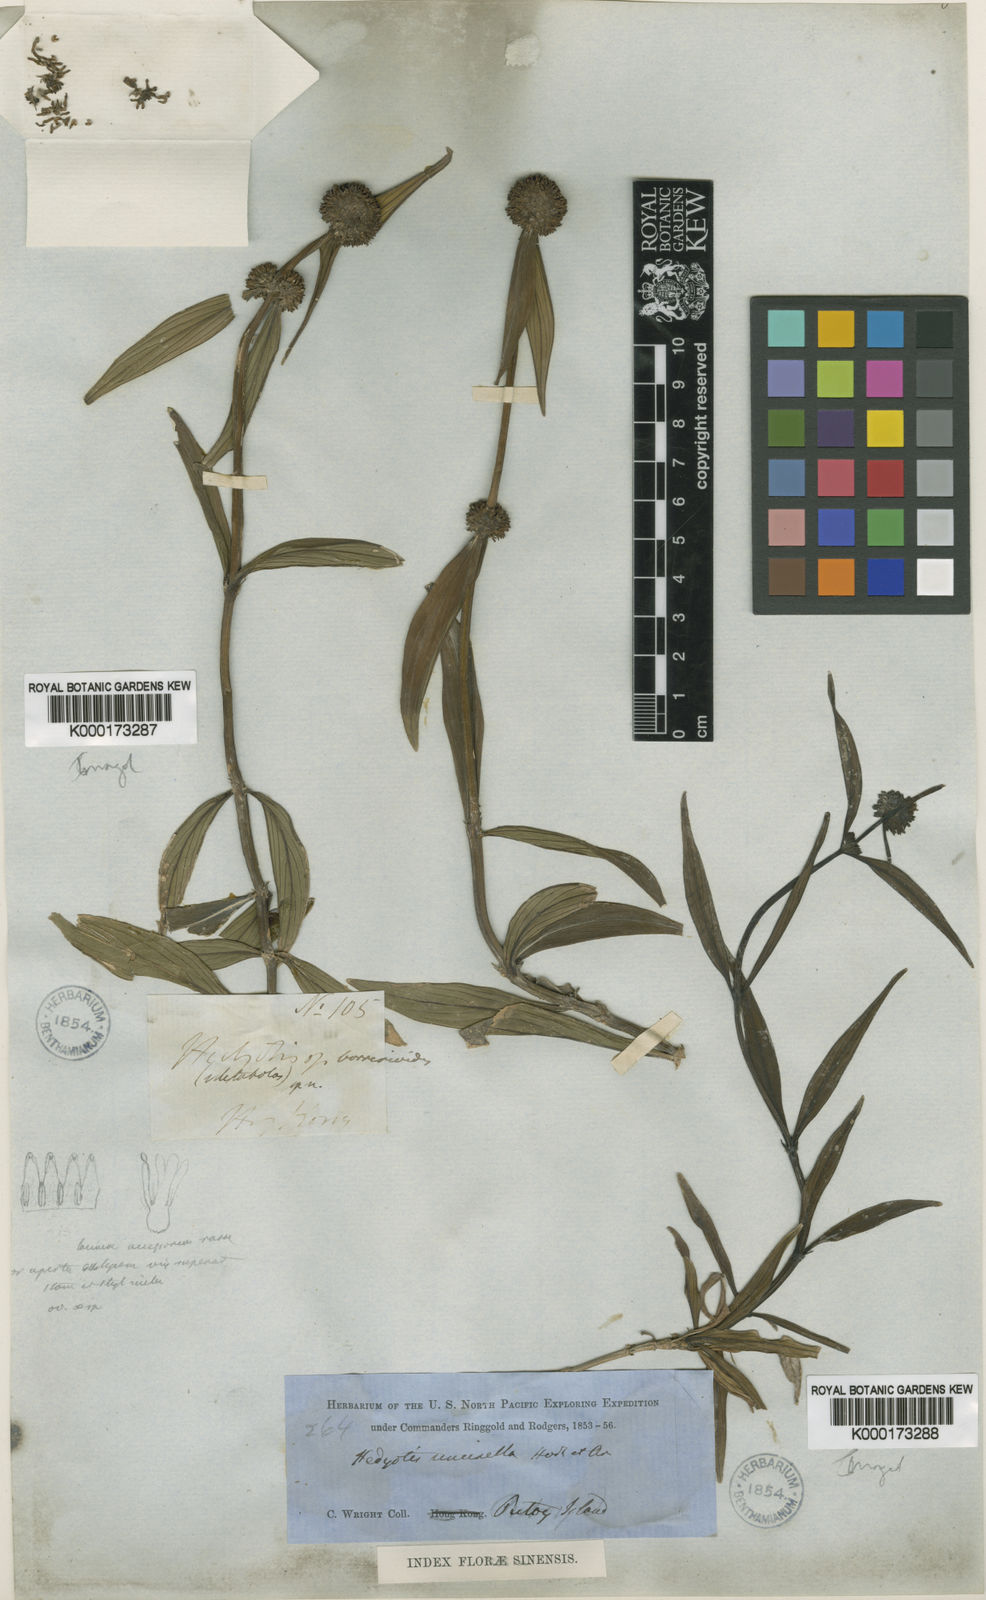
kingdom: Plantae
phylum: Tracheophyta
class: Magnoliopsida
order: Gentianales
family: Rubiaceae
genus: Hedyotis
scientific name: Hedyotis uncinella
